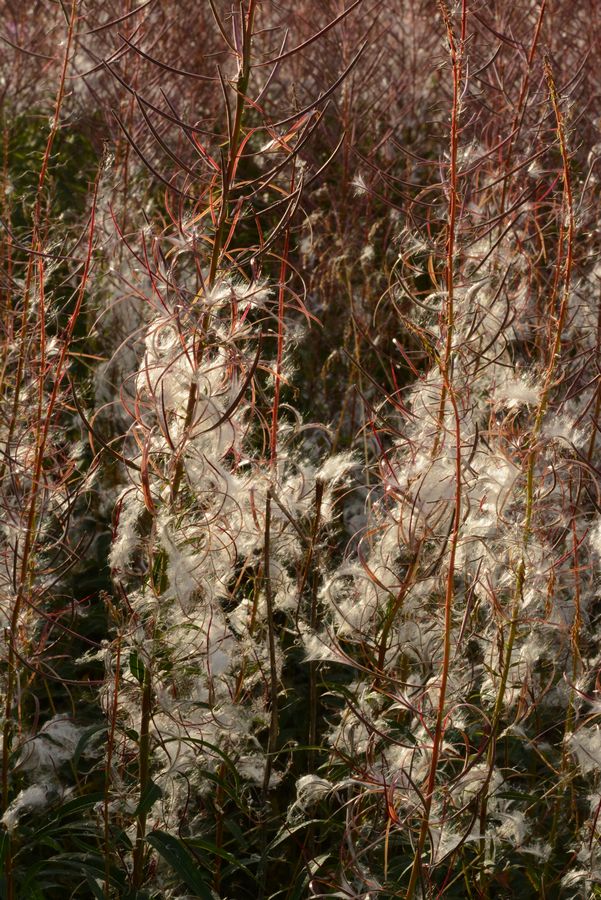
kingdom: Plantae
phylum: Tracheophyta
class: Magnoliopsida
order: Myrtales
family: Onagraceae
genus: Chamaenerion
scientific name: Chamaenerion angustifolium
